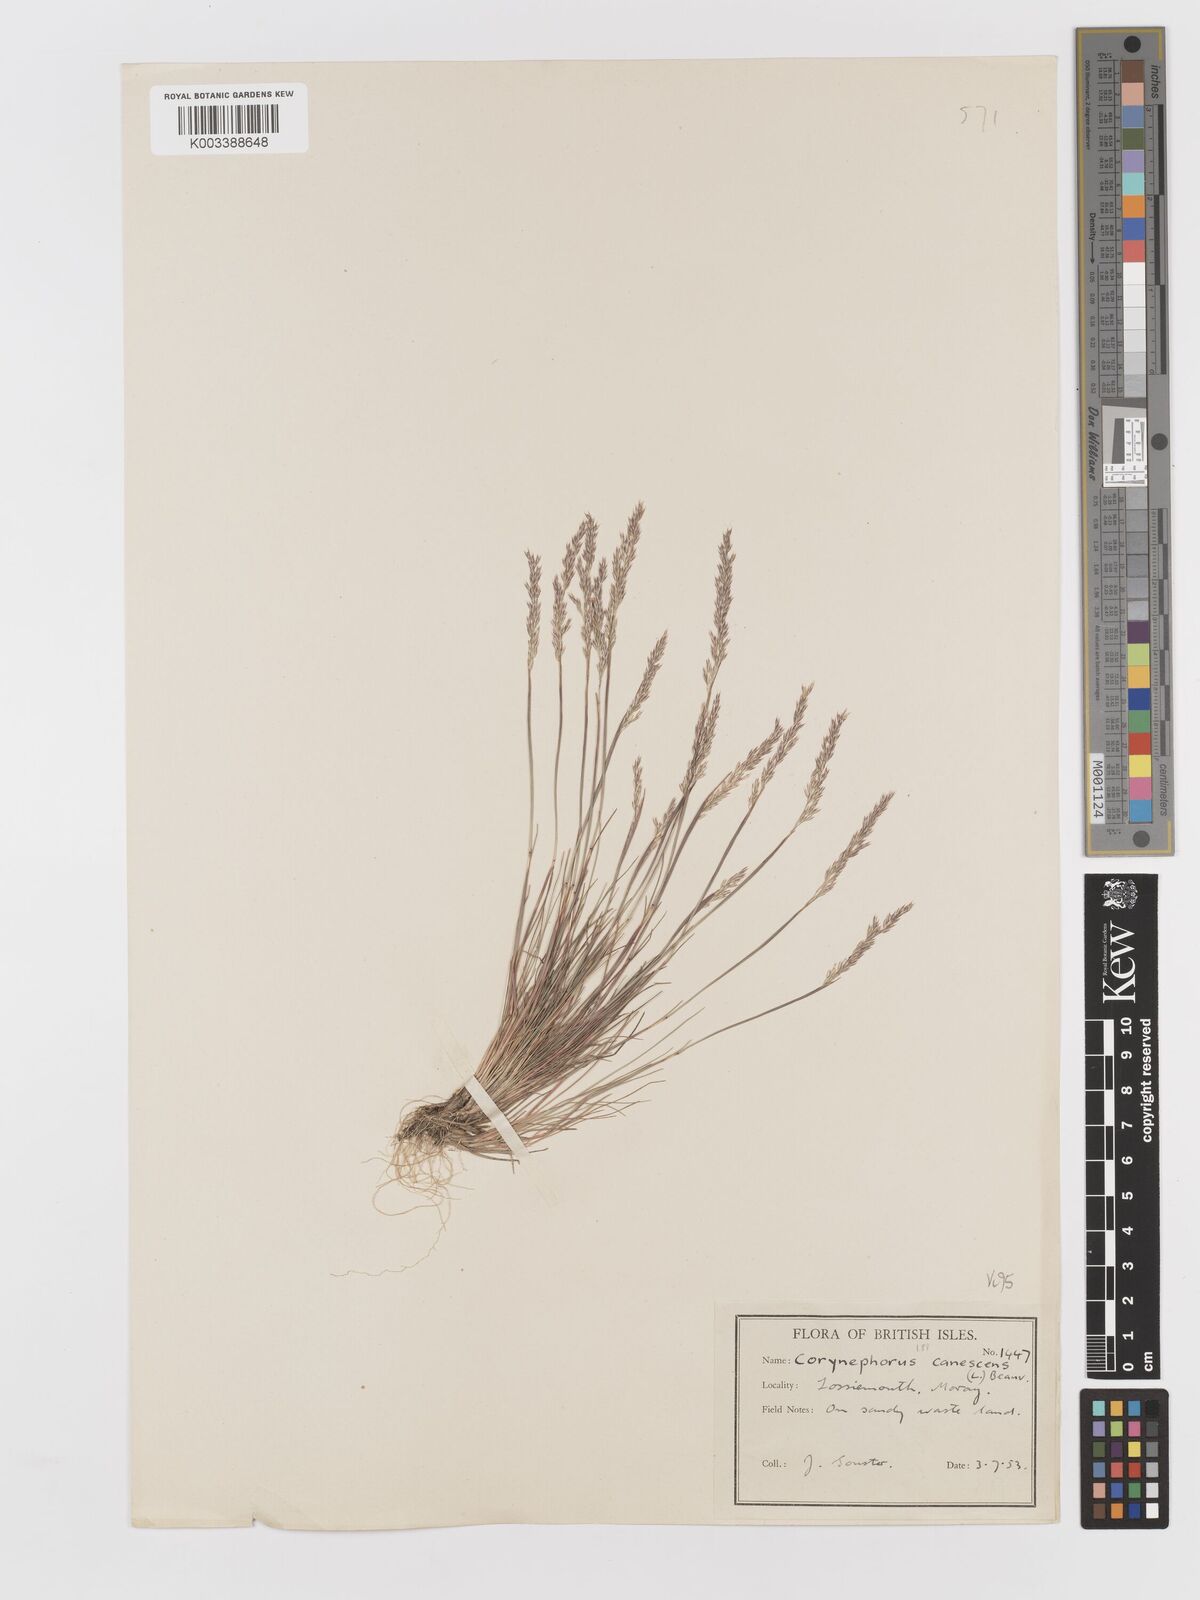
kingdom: Plantae
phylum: Tracheophyta
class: Liliopsida
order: Poales
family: Poaceae
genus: Corynephorus
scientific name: Corynephorus canescens
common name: Grey hair-grass
